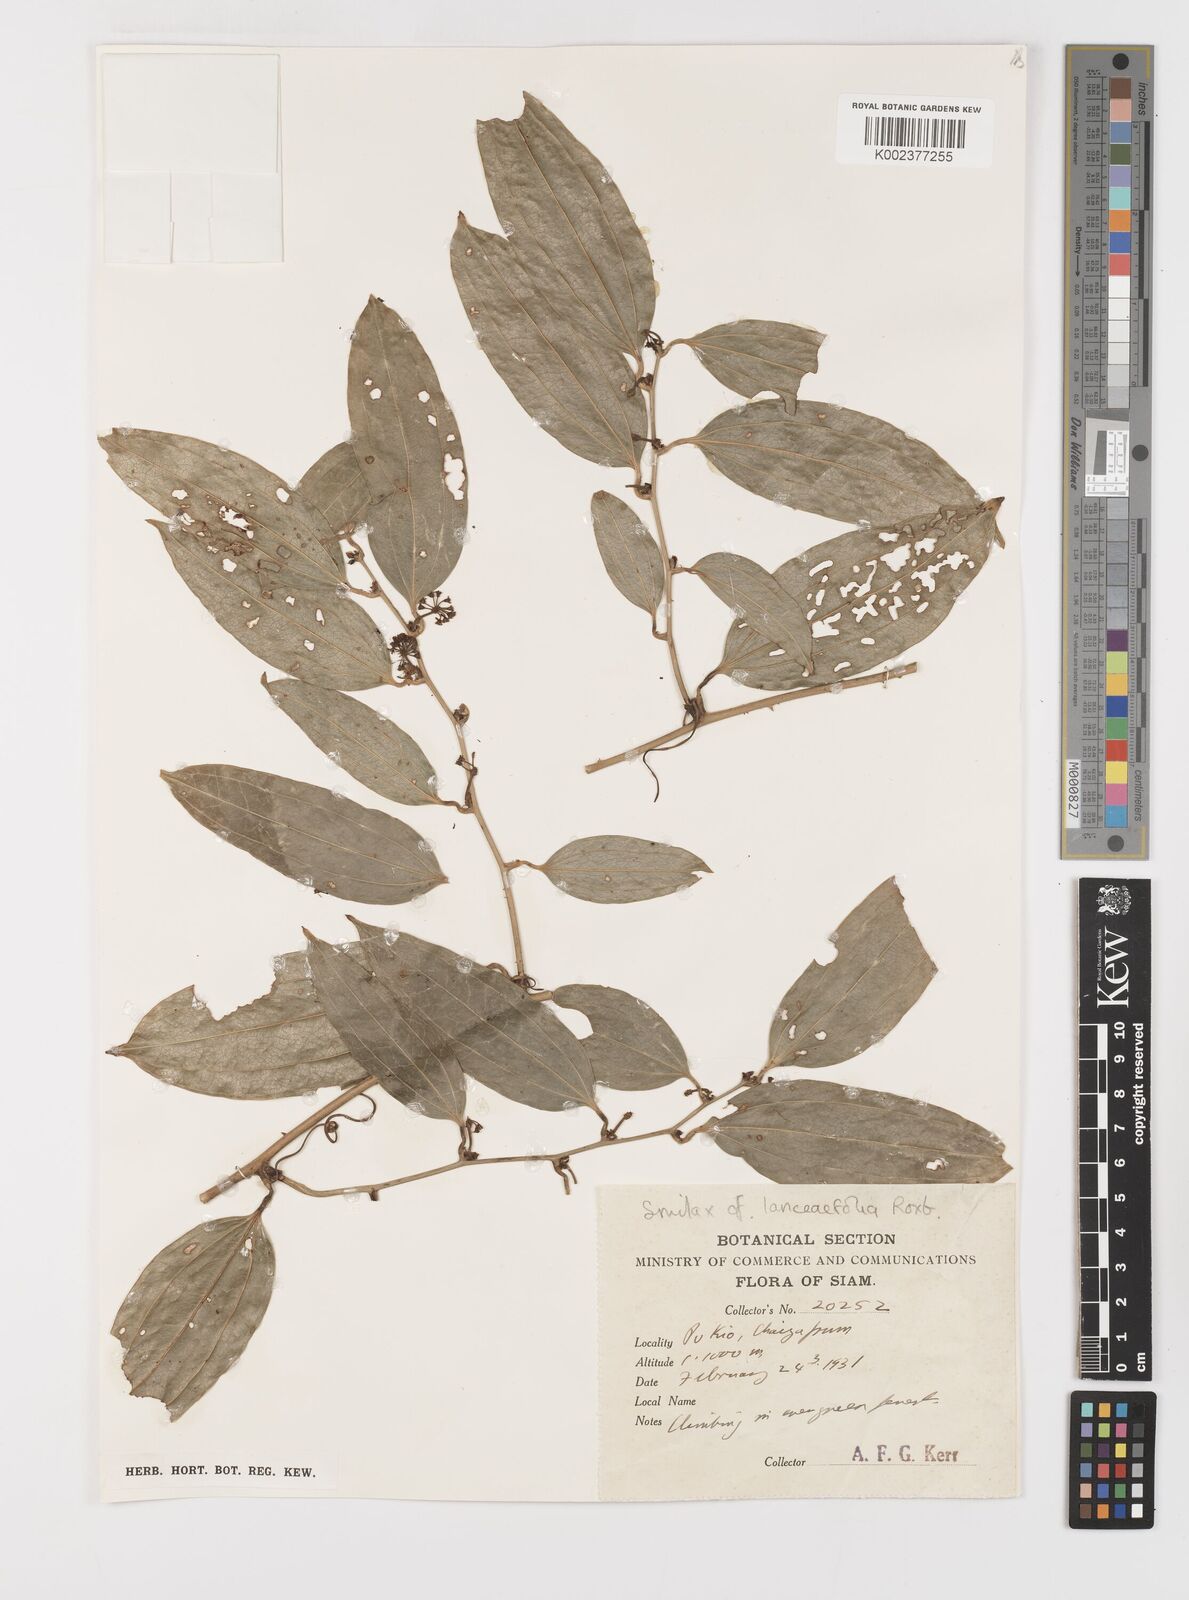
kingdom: Plantae
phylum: Tracheophyta
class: Liliopsida
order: Liliales
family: Smilacaceae
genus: Smilax
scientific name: Smilax lanceifolia
